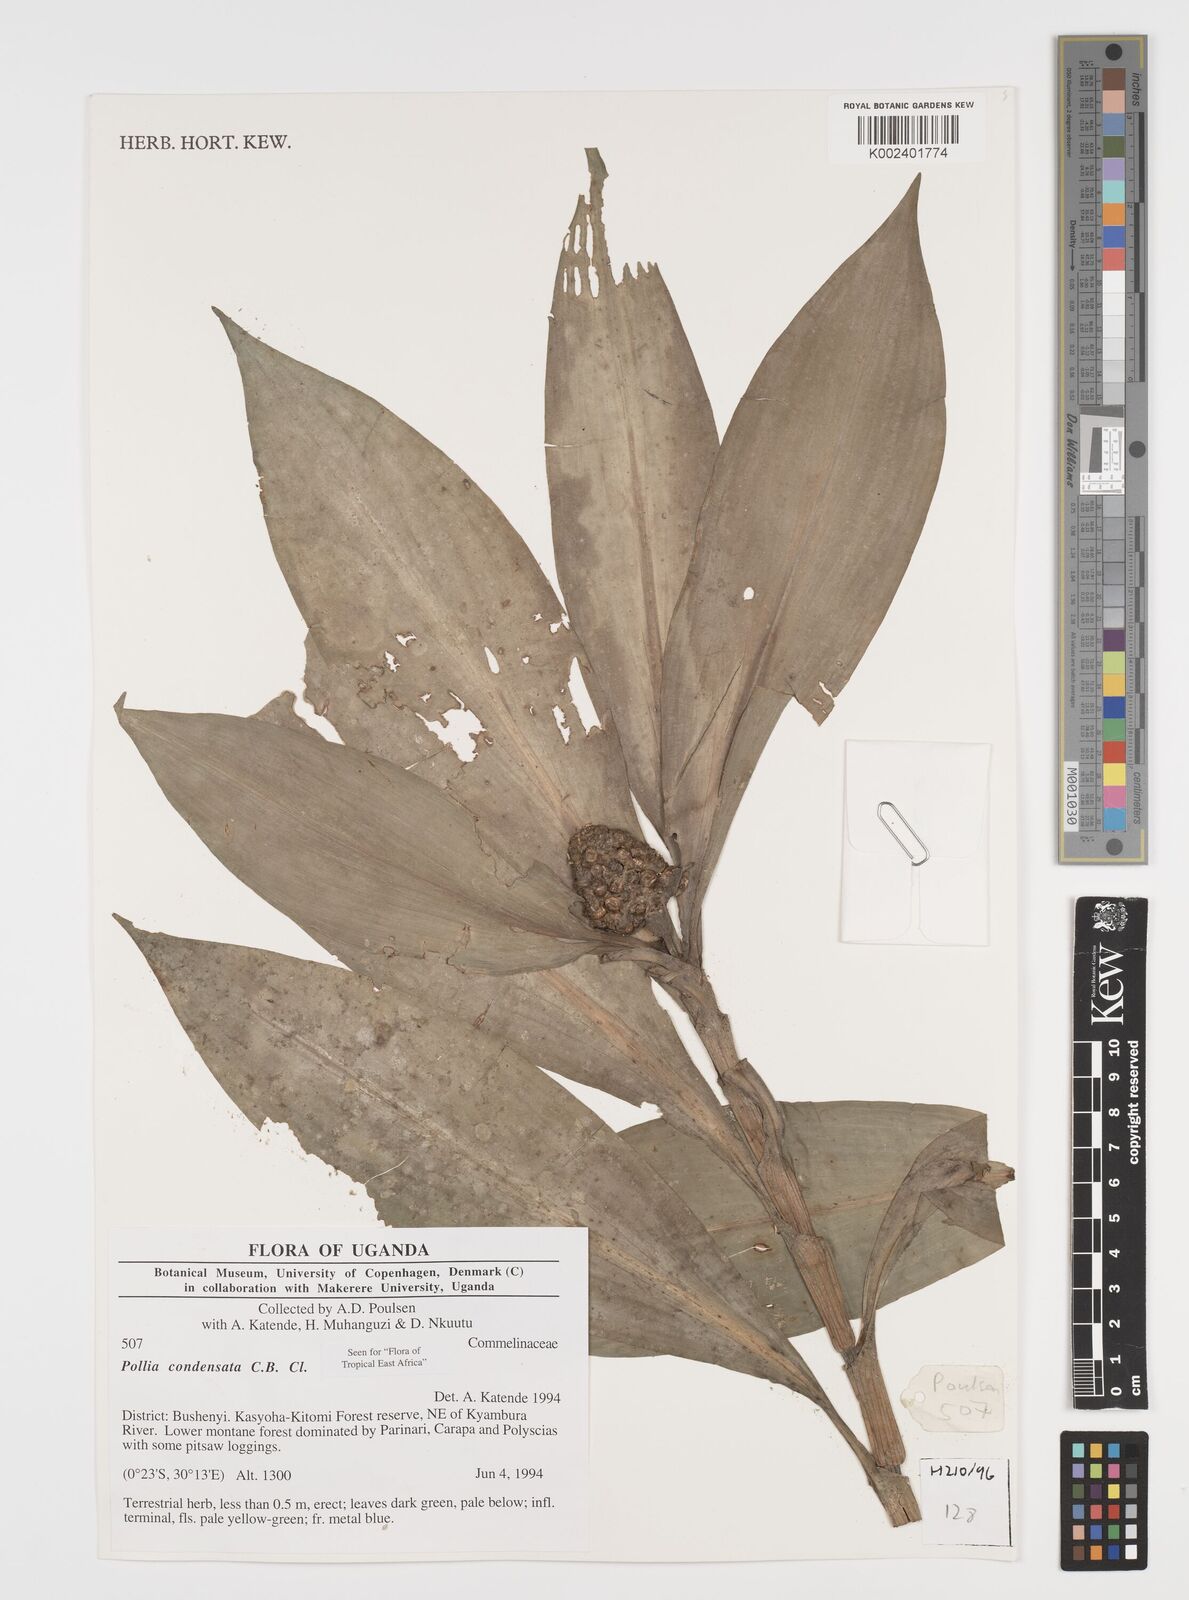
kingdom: Plantae
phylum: Tracheophyta
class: Liliopsida
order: Commelinales
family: Commelinaceae
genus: Pollia
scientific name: Pollia condensata
